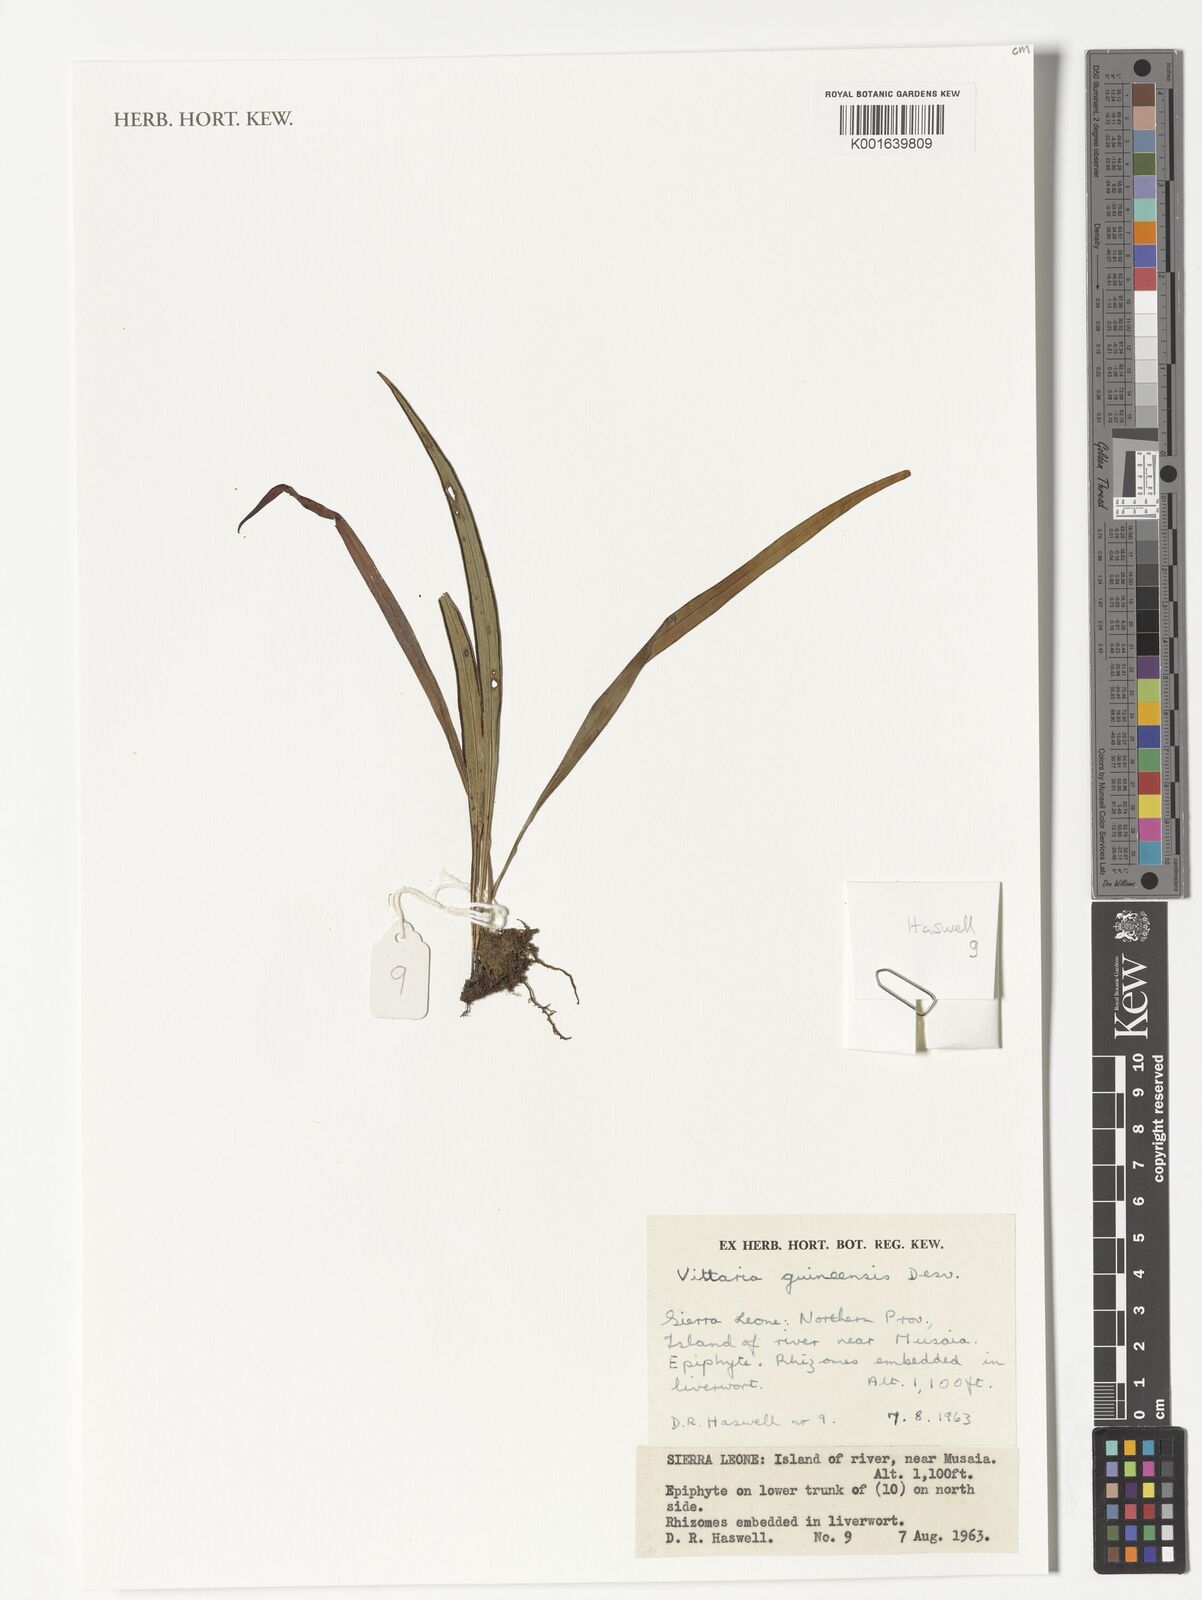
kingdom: Plantae
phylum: Tracheophyta
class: Polypodiopsida
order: Polypodiales
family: Pteridaceae
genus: Haplopteris
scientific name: Haplopteris guineensis
